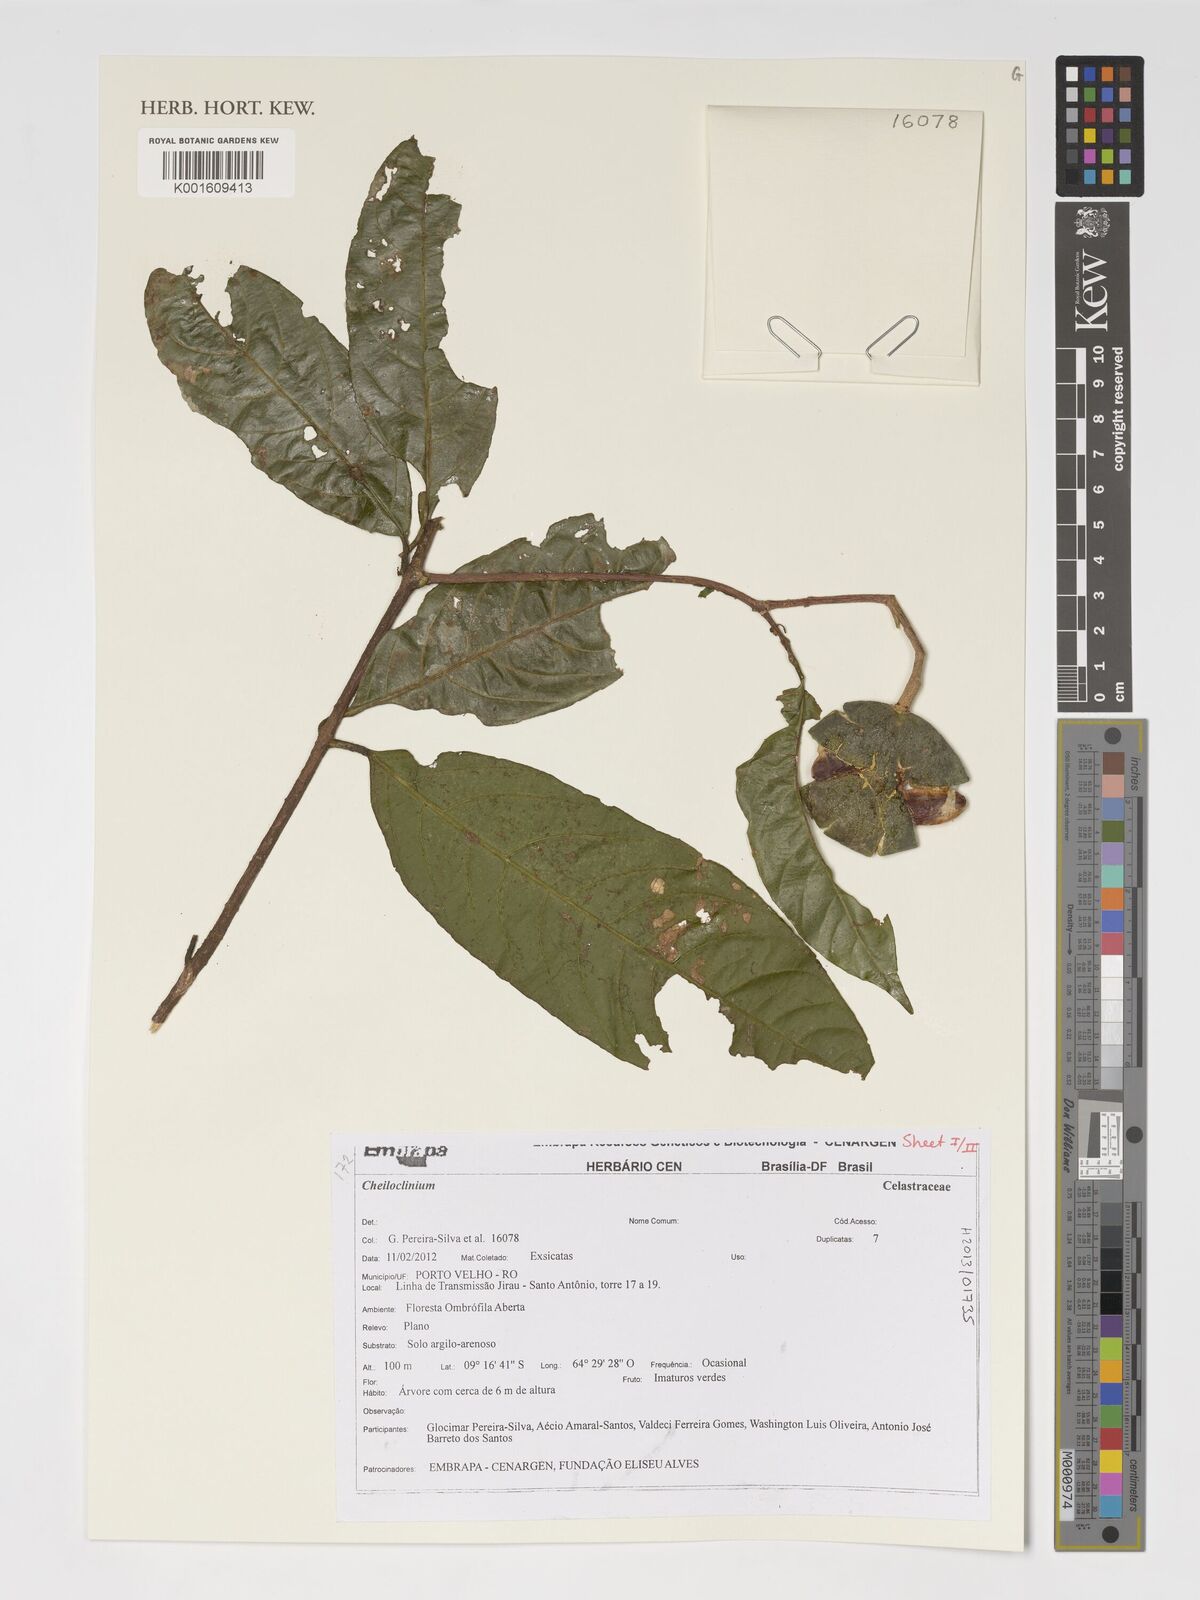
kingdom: Plantae
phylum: Tracheophyta
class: Magnoliopsida
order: Celastrales
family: Celastraceae
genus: Cheiloclinium
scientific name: Cheiloclinium
